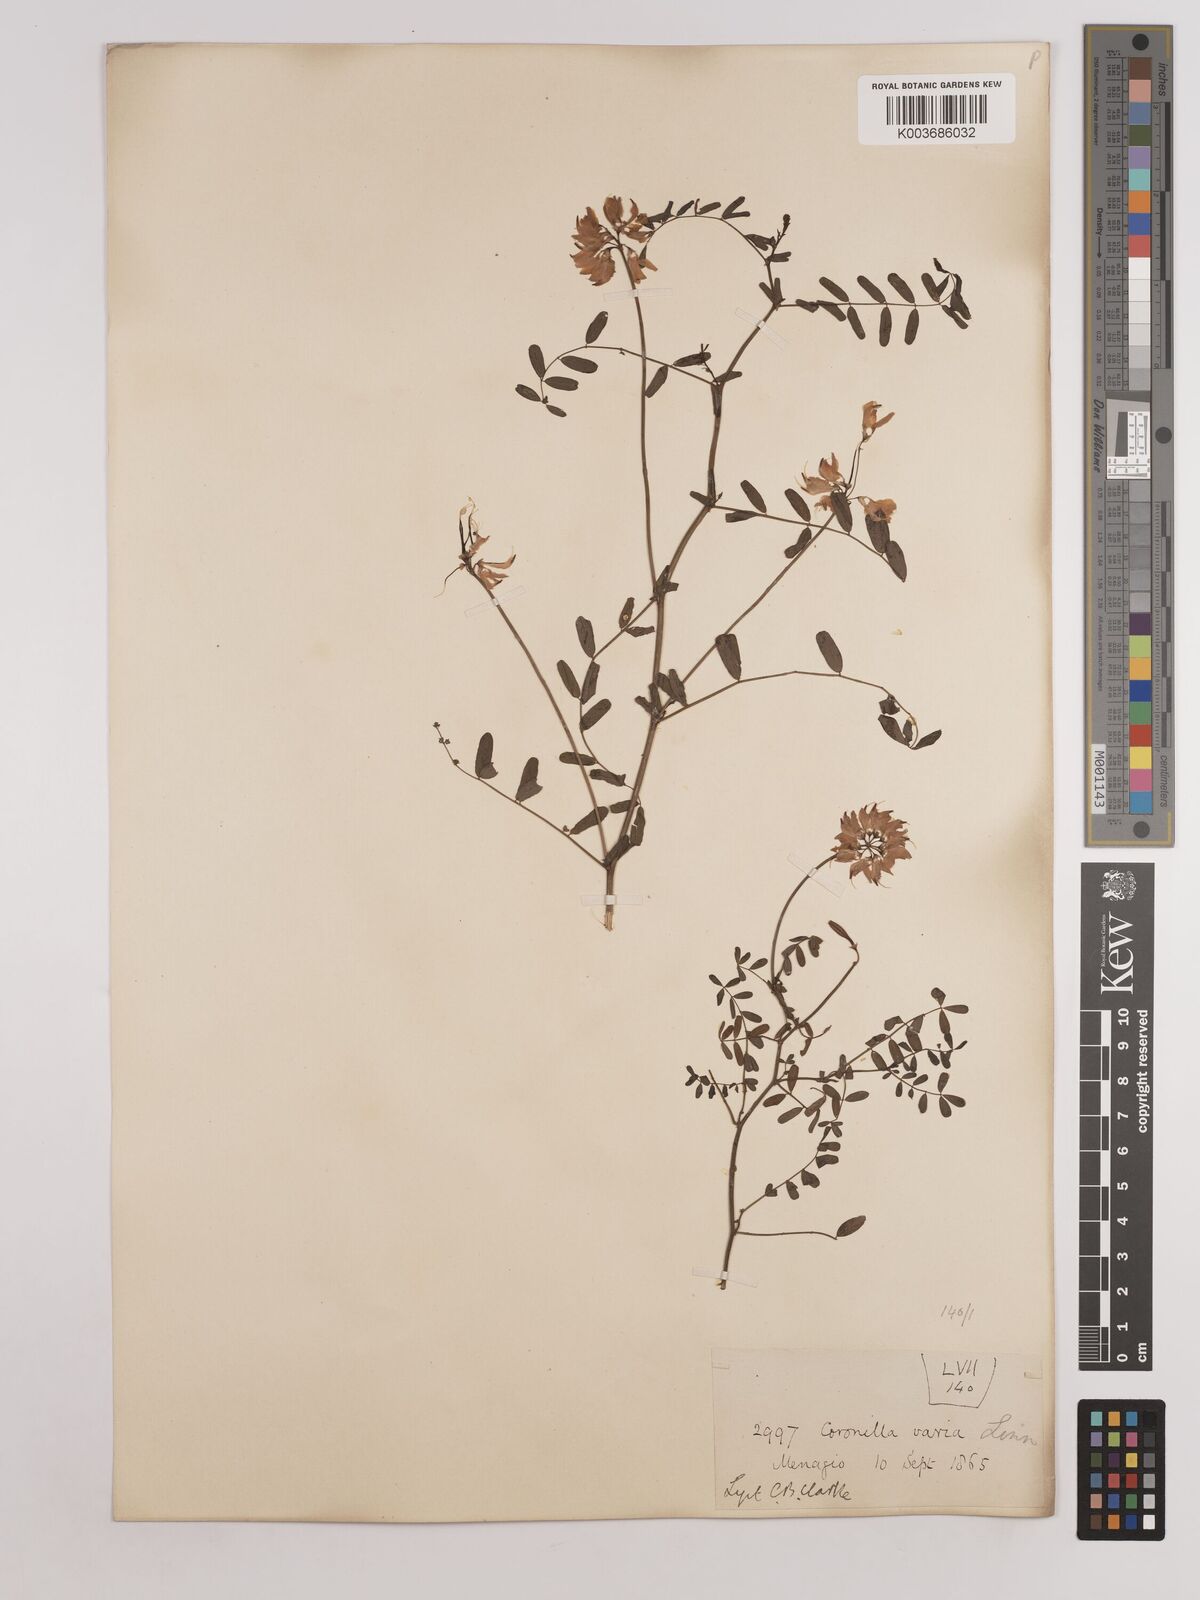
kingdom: Plantae
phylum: Tracheophyta
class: Magnoliopsida
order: Fabales
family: Fabaceae
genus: Coronilla
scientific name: Coronilla varia
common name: Crownvetch
